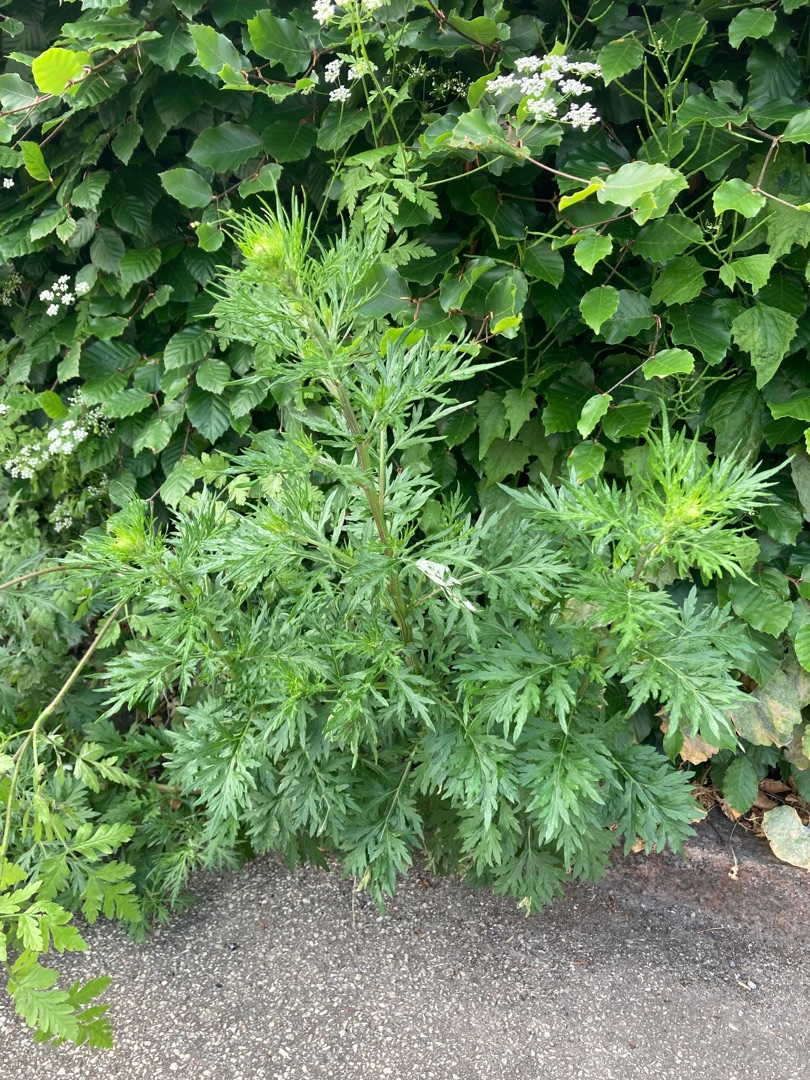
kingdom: Plantae
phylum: Tracheophyta
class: Magnoliopsida
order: Asterales
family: Asteraceae
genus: Artemisia
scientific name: Artemisia vulgaris
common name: Grå-bynke
